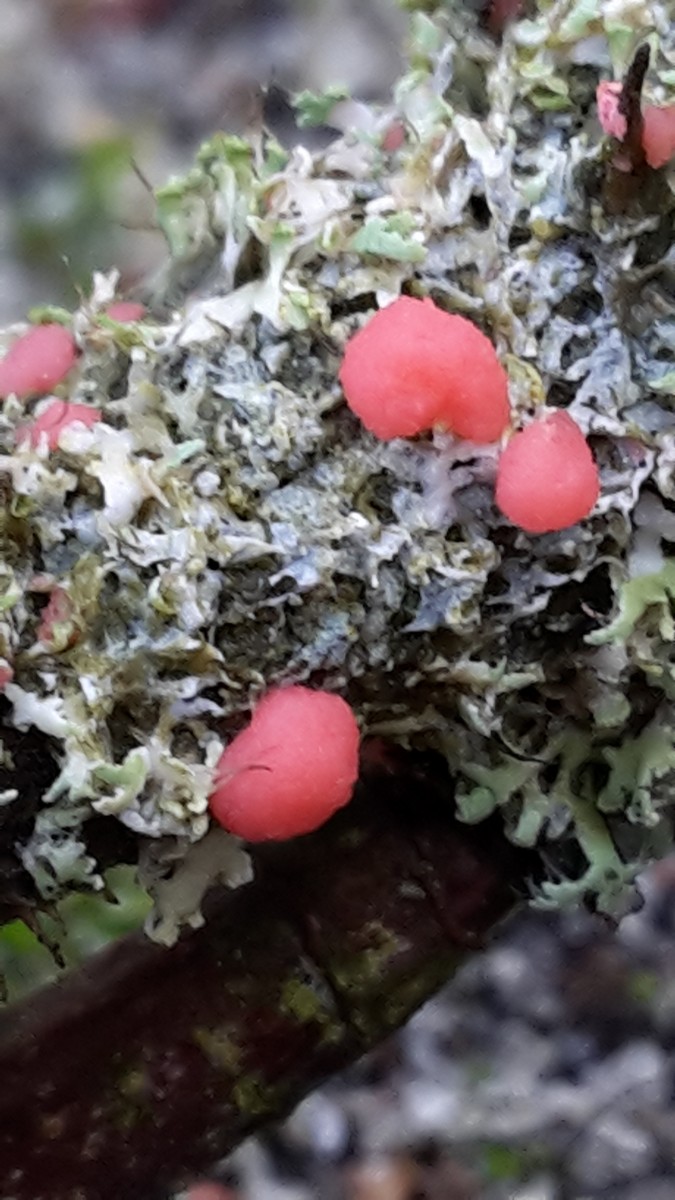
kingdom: Fungi
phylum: Ascomycota
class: Sordariomycetes
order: Hypocreales
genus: Illosporiopsis
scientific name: Illosporiopsis christiansenii
